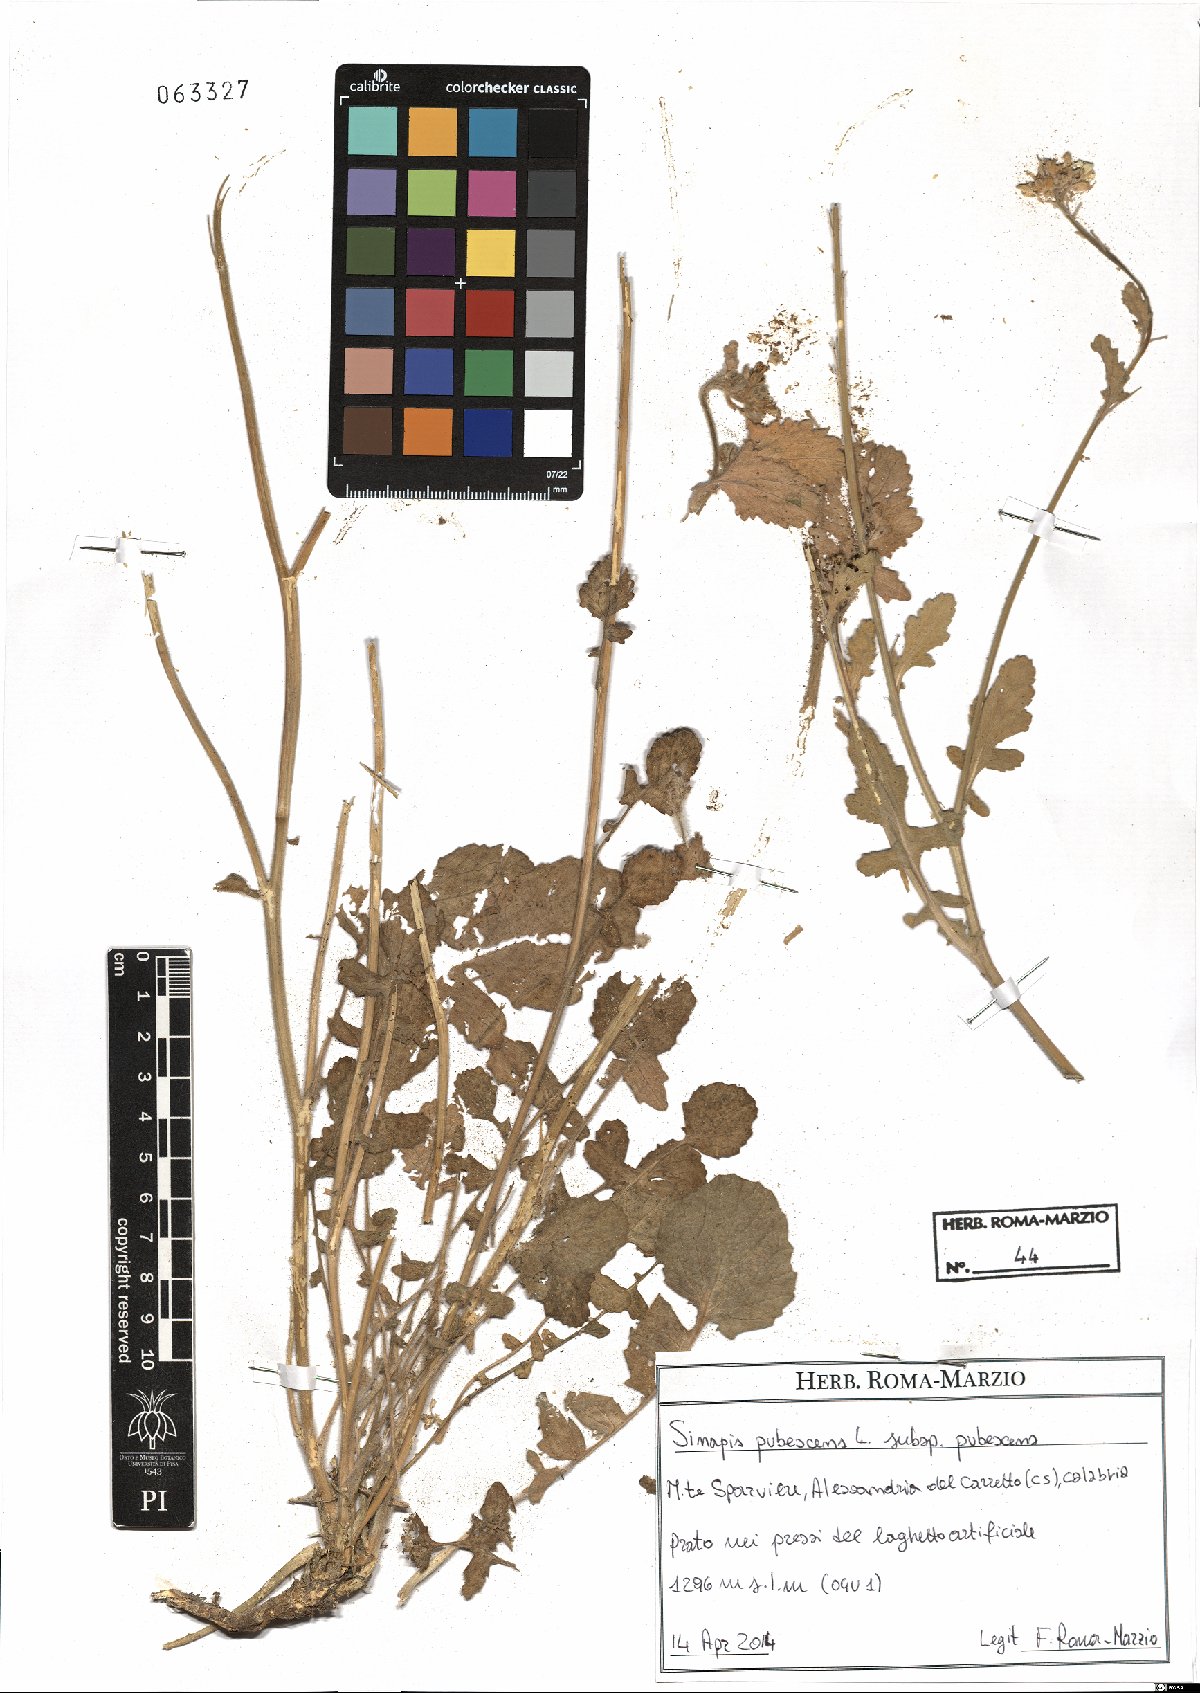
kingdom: Plantae
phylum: Tracheophyta
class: Magnoliopsida
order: Brassicales
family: Brassicaceae
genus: Sinapis
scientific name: Sinapis pubescens
